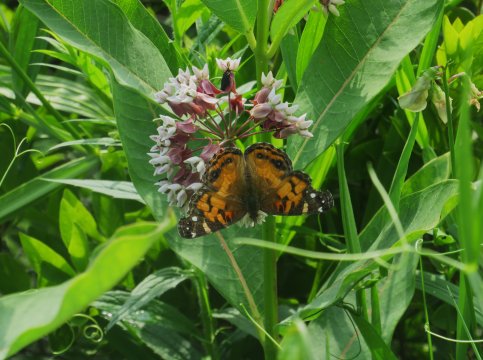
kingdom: Animalia
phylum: Arthropoda
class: Insecta
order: Lepidoptera
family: Nymphalidae
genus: Vanessa
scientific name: Vanessa virginiensis
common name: American Lady
